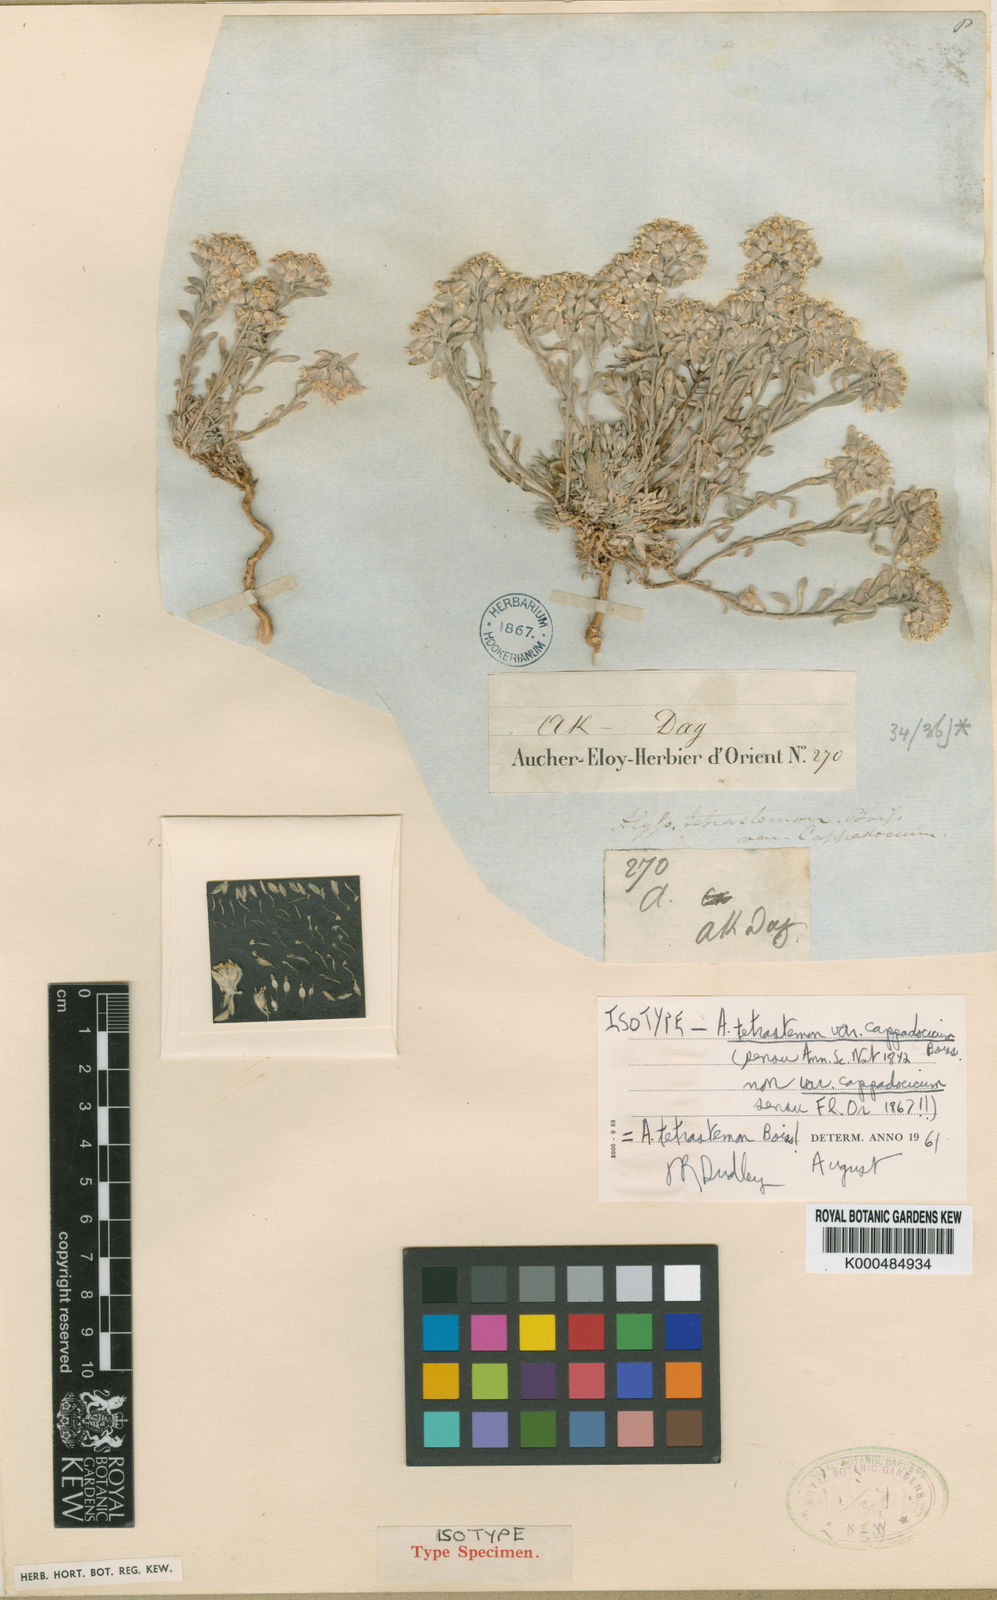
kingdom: Plantae
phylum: Tracheophyta
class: Magnoliopsida
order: Brassicales
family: Brassicaceae
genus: Alyssum
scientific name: Alyssum iranicum
